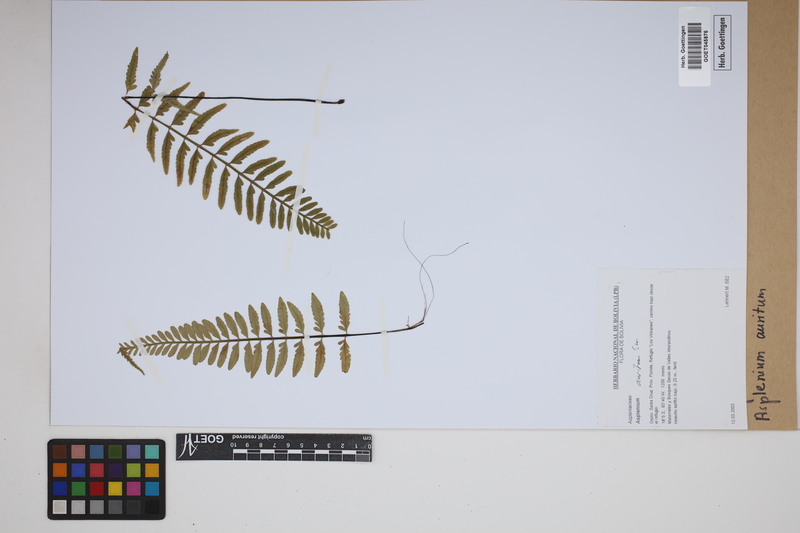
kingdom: Plantae
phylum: Tracheophyta
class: Polypodiopsida
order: Polypodiales
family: Aspleniaceae
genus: Asplenium
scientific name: Asplenium auritum
